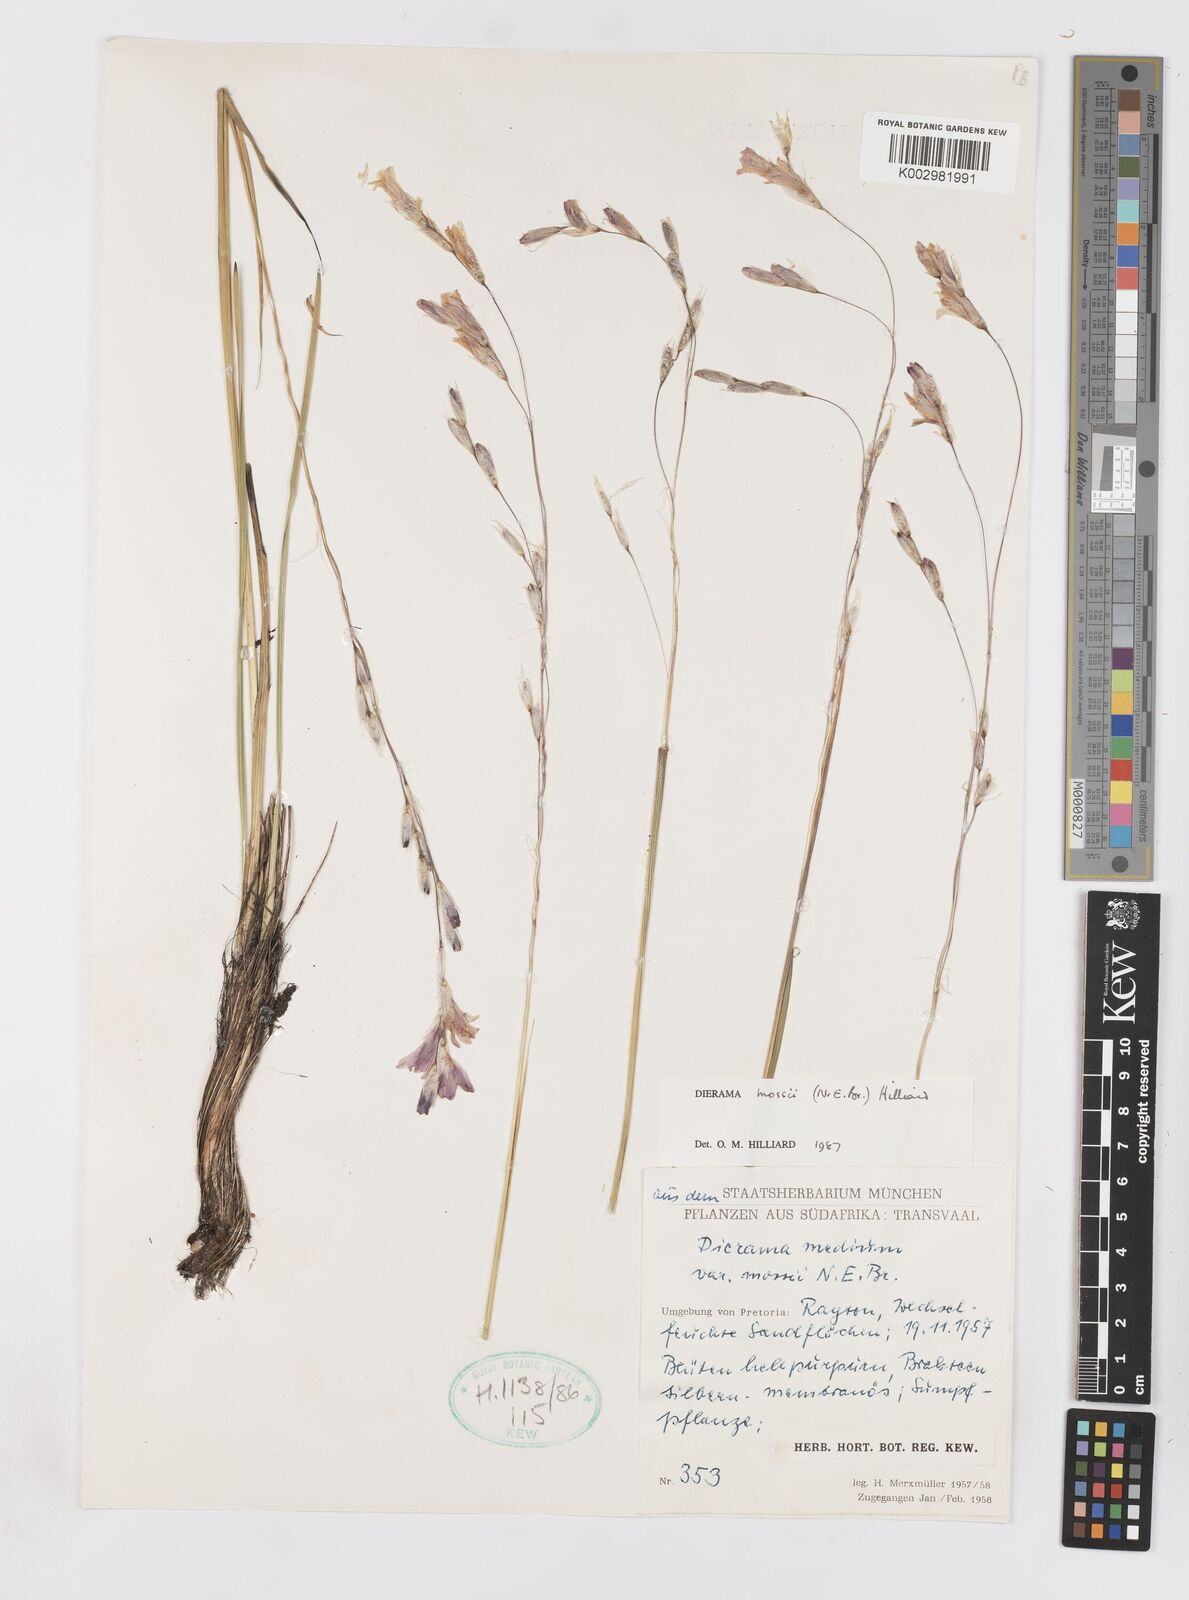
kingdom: Plantae
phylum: Tracheophyta
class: Liliopsida
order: Asparagales
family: Iridaceae
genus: Dierama
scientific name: Dierama mossii
